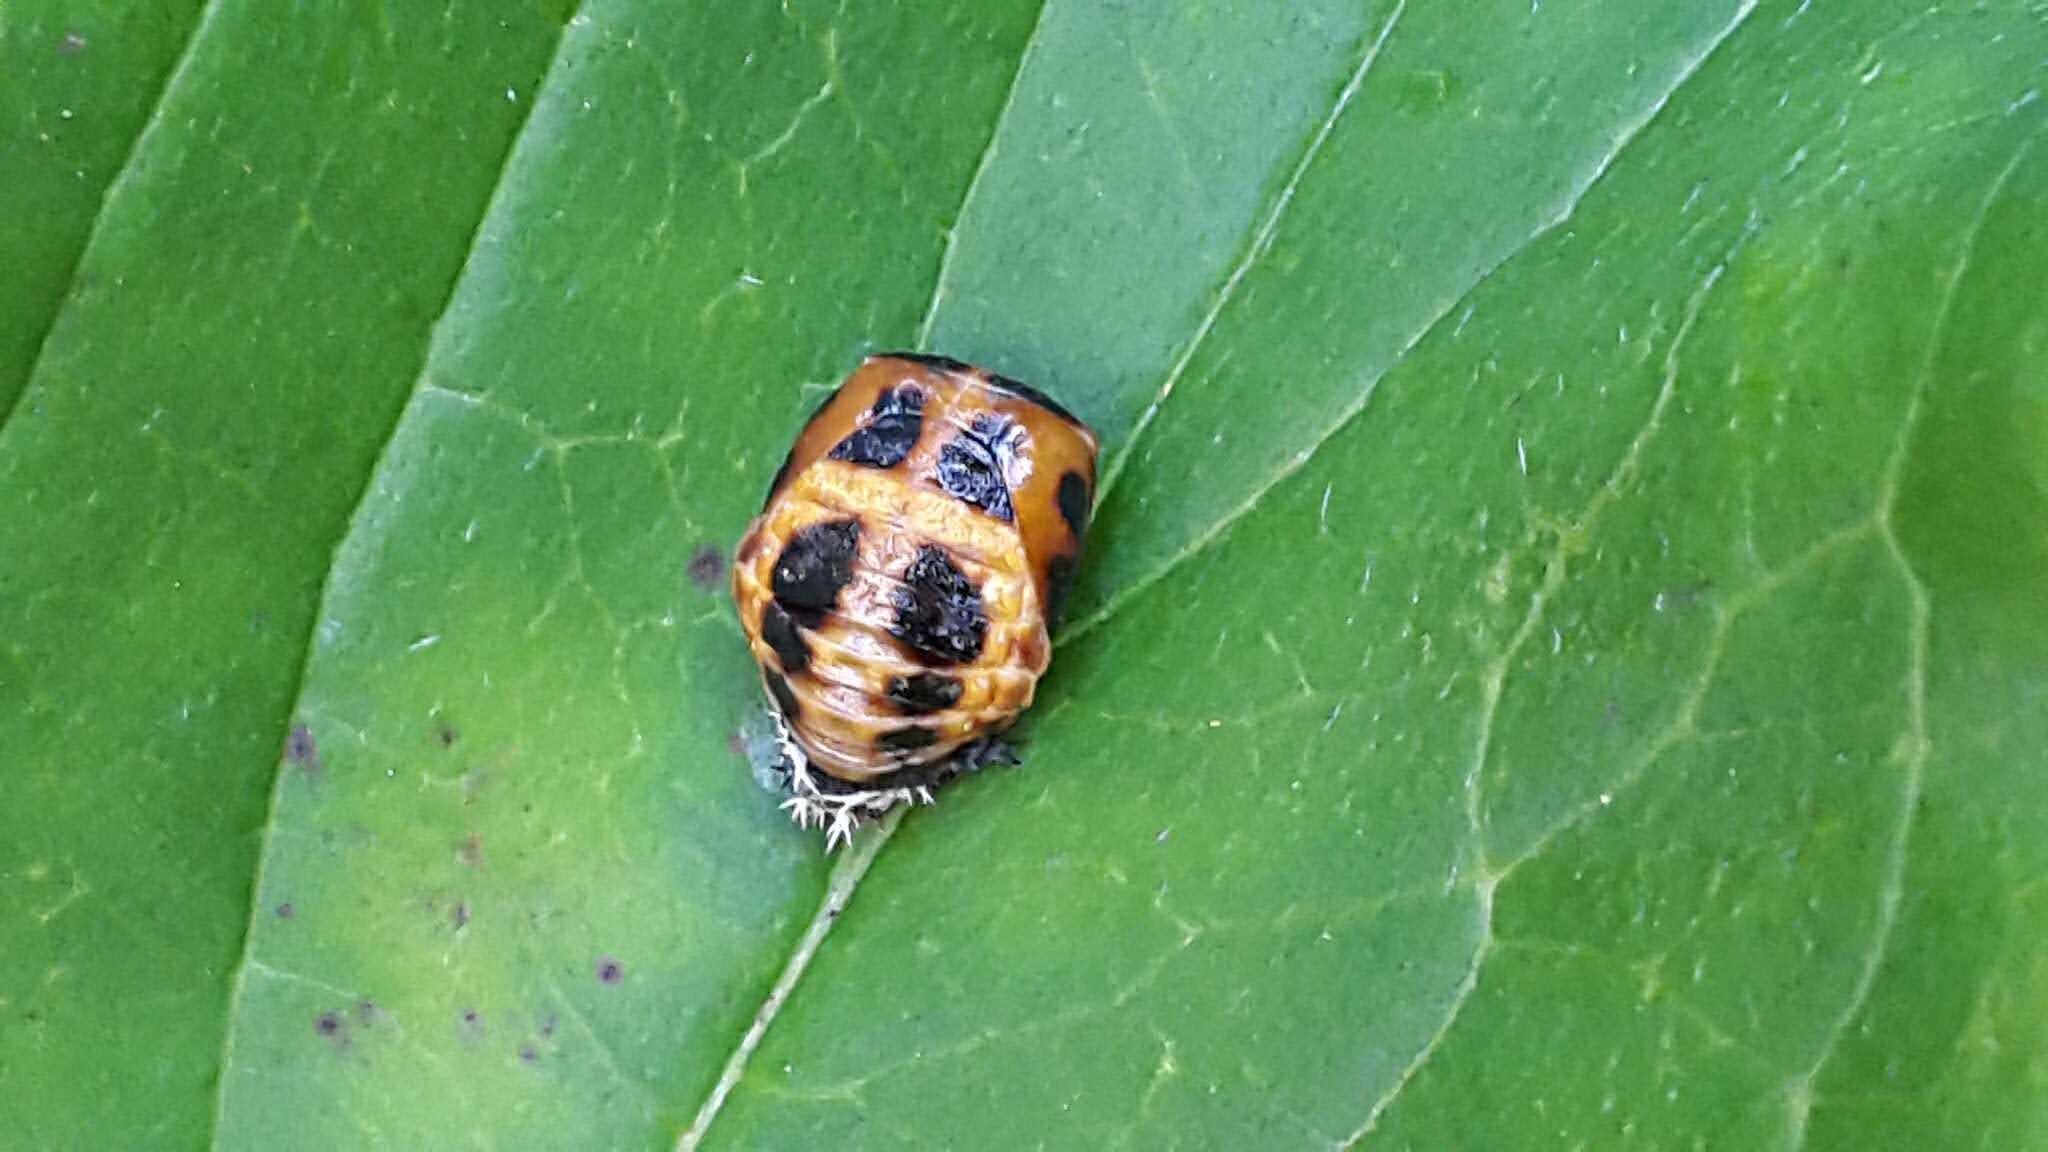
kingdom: Animalia
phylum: Arthropoda
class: Insecta
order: Coleoptera
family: Coccinellidae
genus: Harmonia
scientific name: Harmonia axyridis
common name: Harlekinmariehøne
